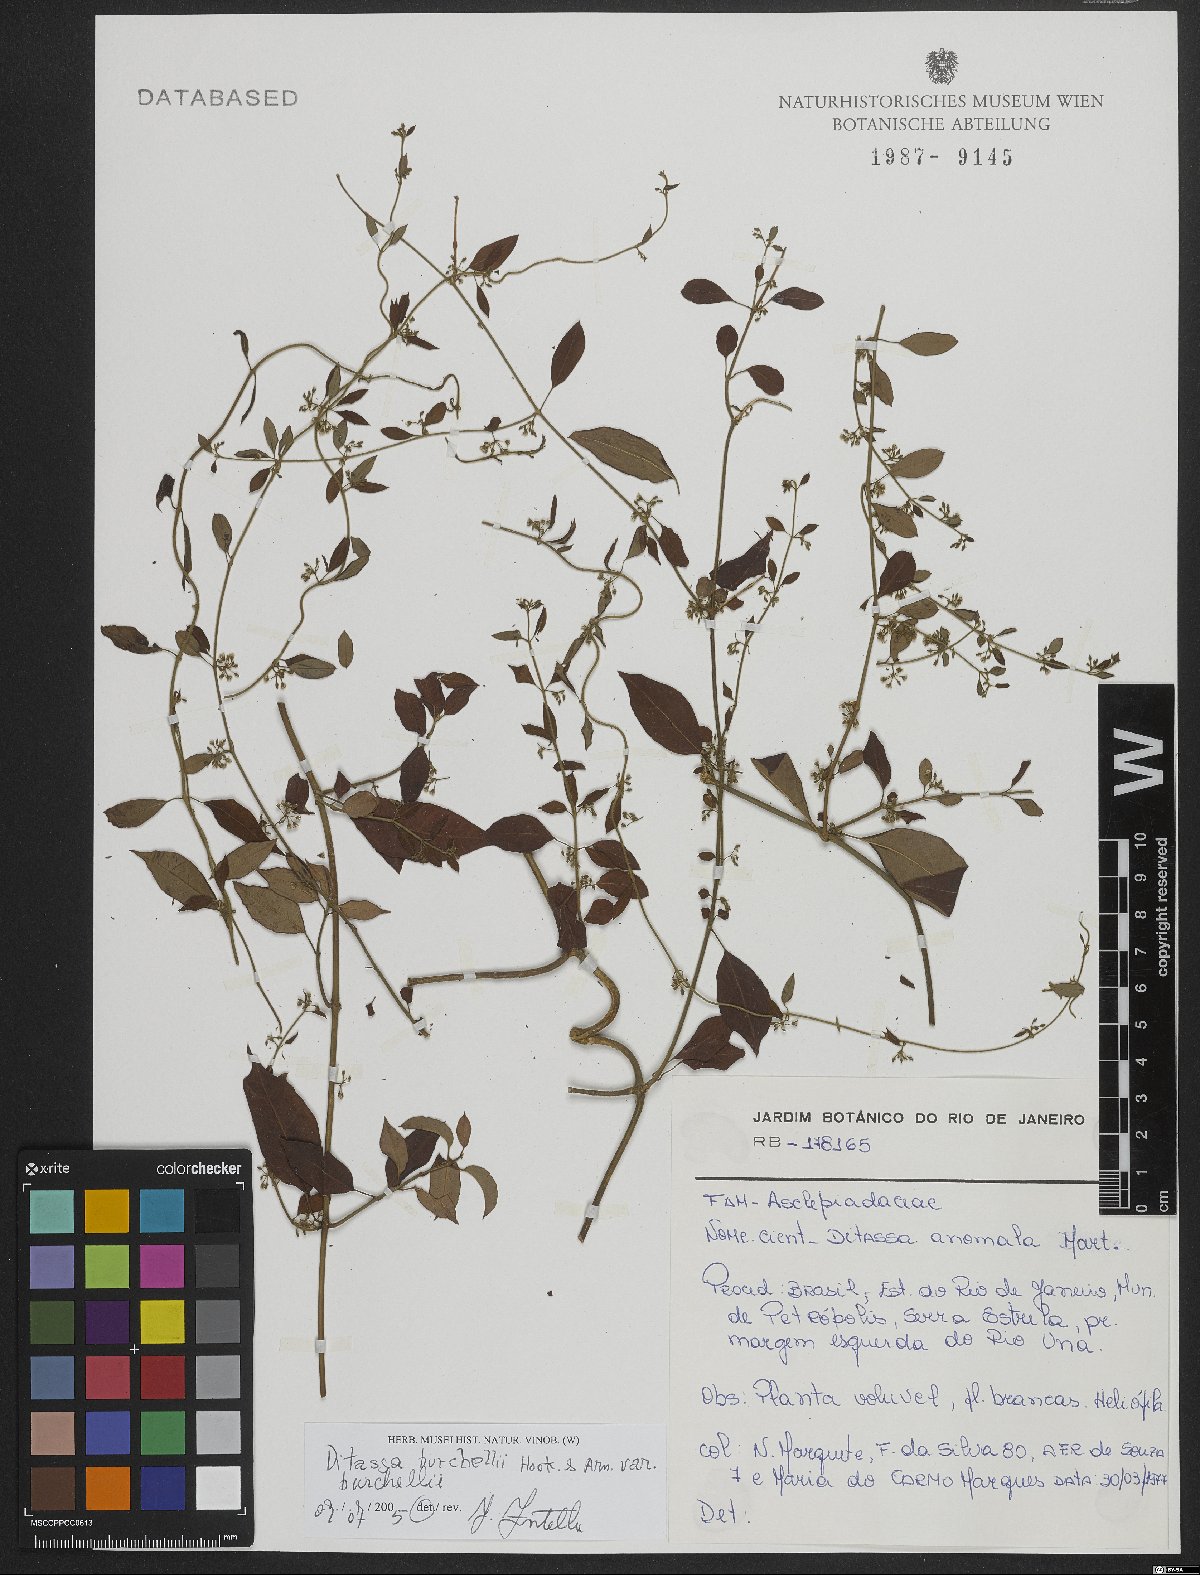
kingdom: Plantae
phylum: Tracheophyta
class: Magnoliopsida
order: Gentianales
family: Apocynaceae
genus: Metastelma
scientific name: Metastelma burchellii
